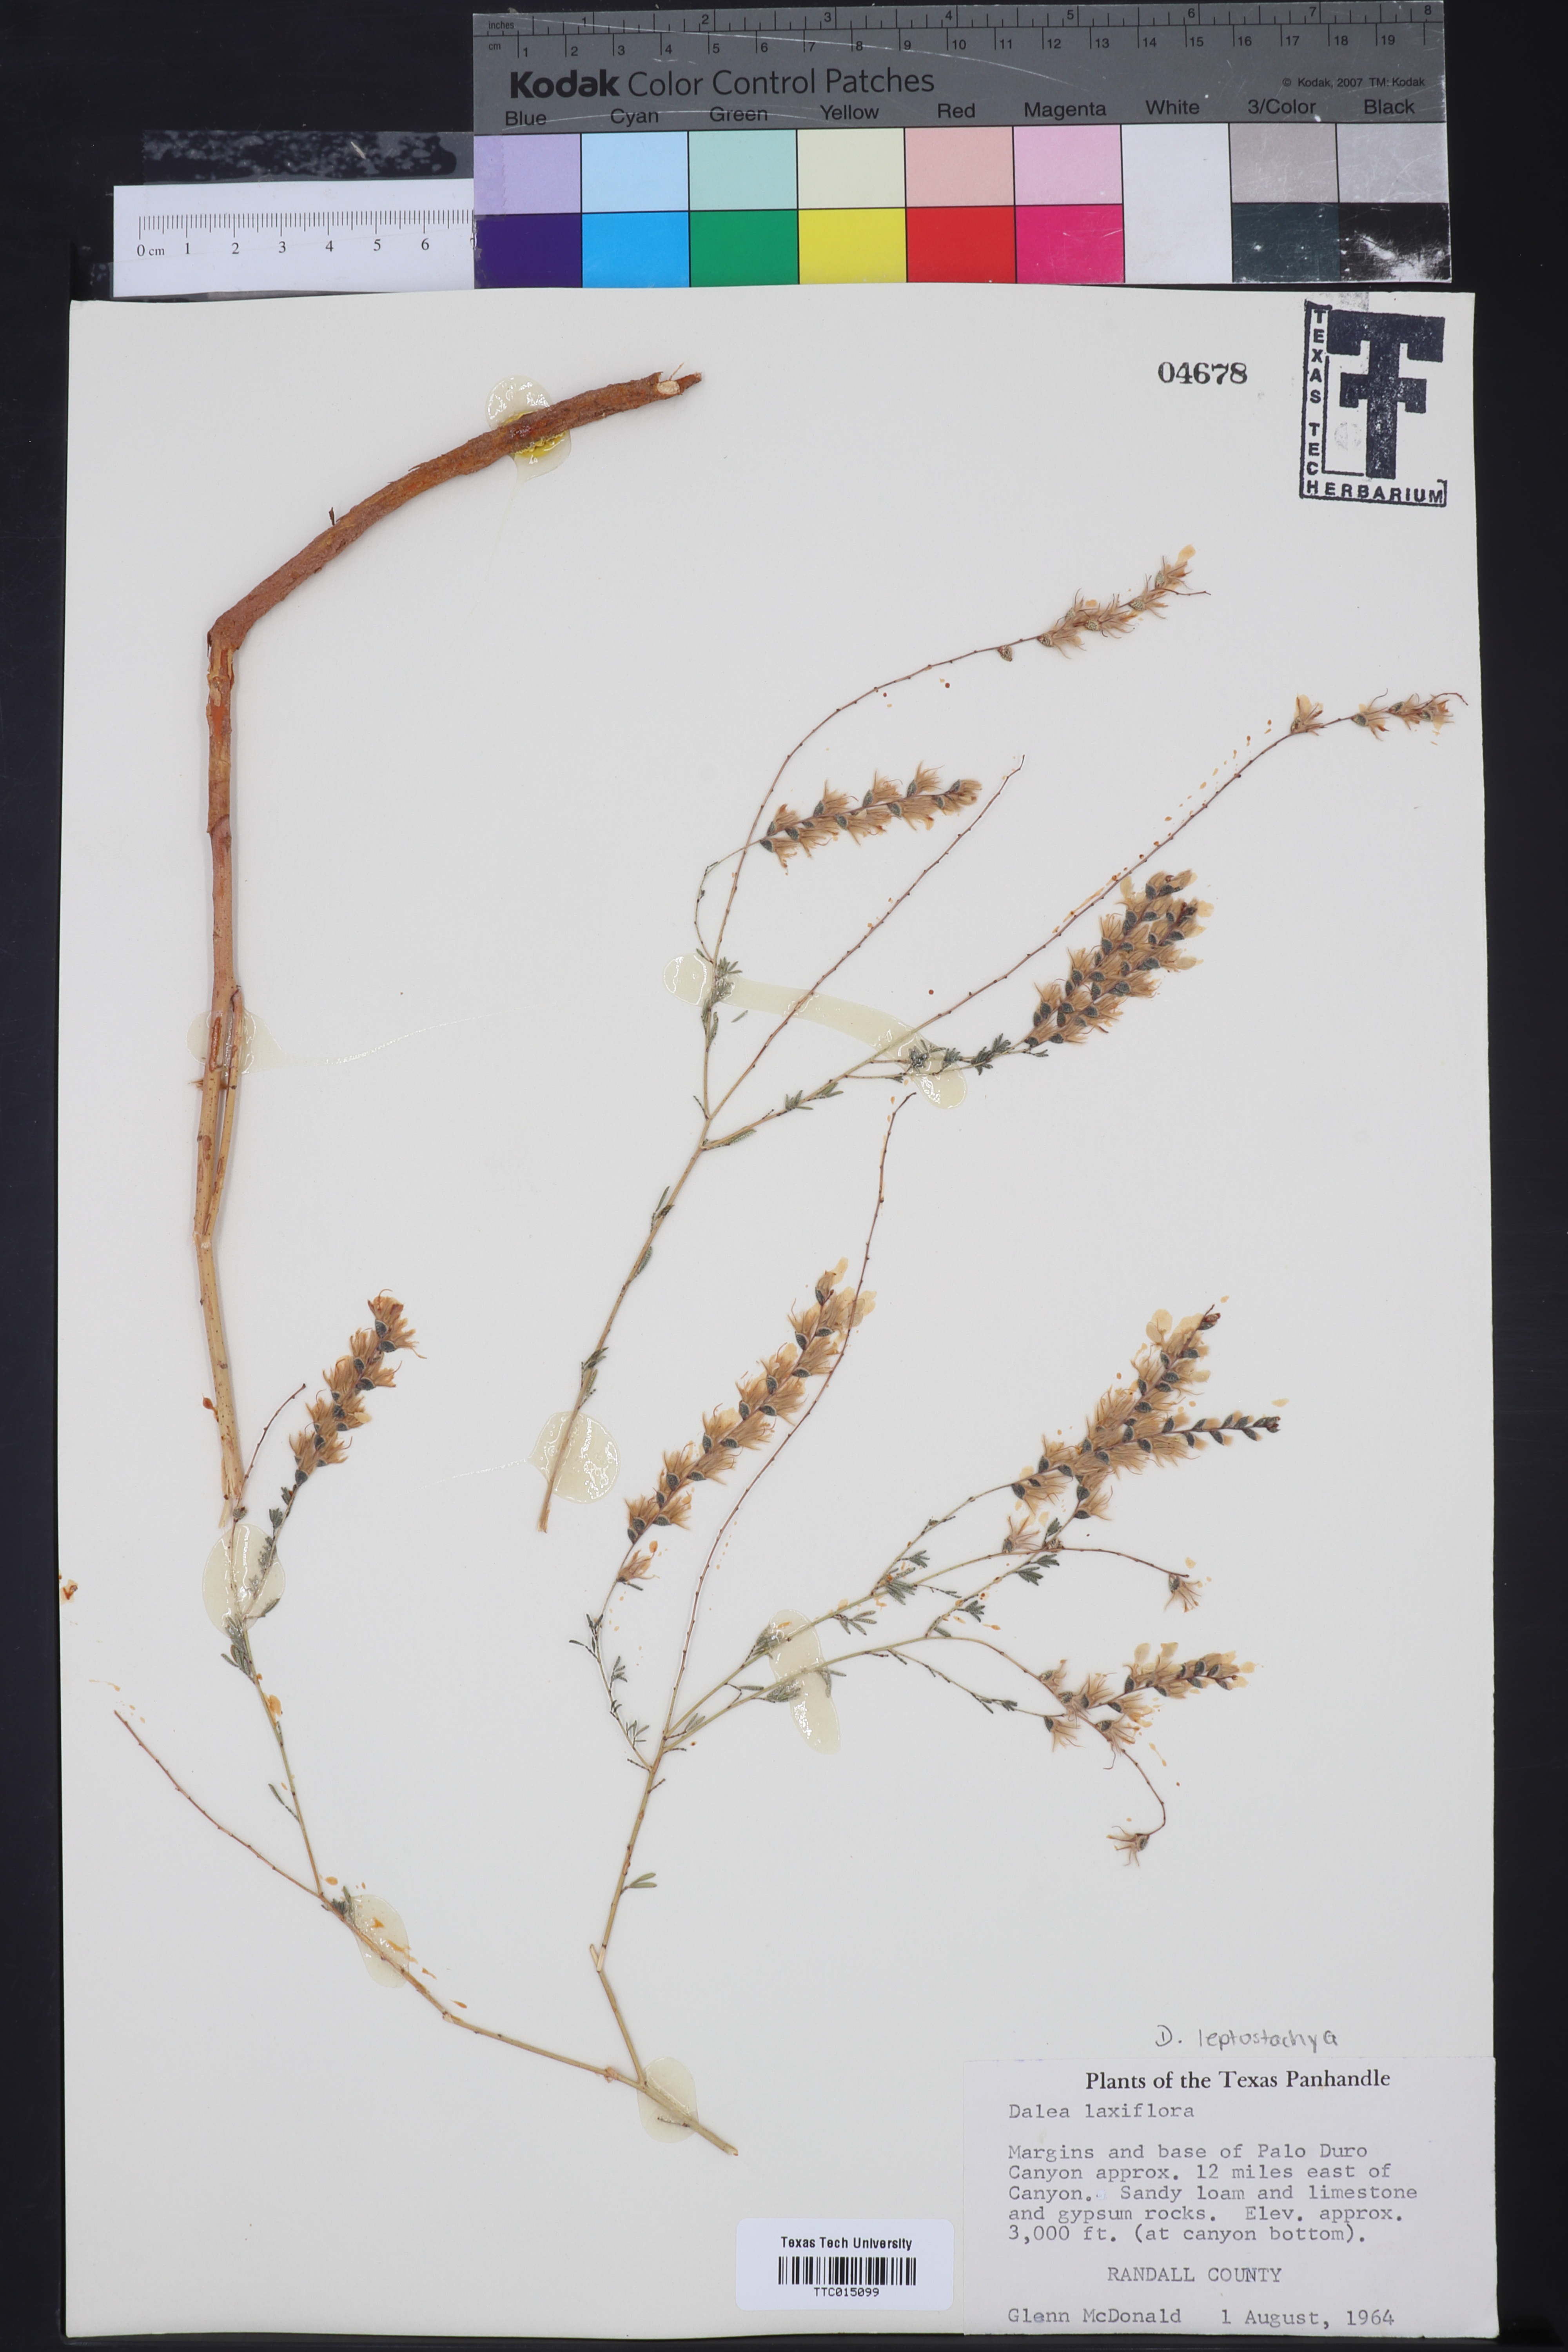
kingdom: Plantae
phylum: Tracheophyta
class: Magnoliopsida
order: Fabales
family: Fabaceae
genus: Dalea
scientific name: Dalea hegewischiana
